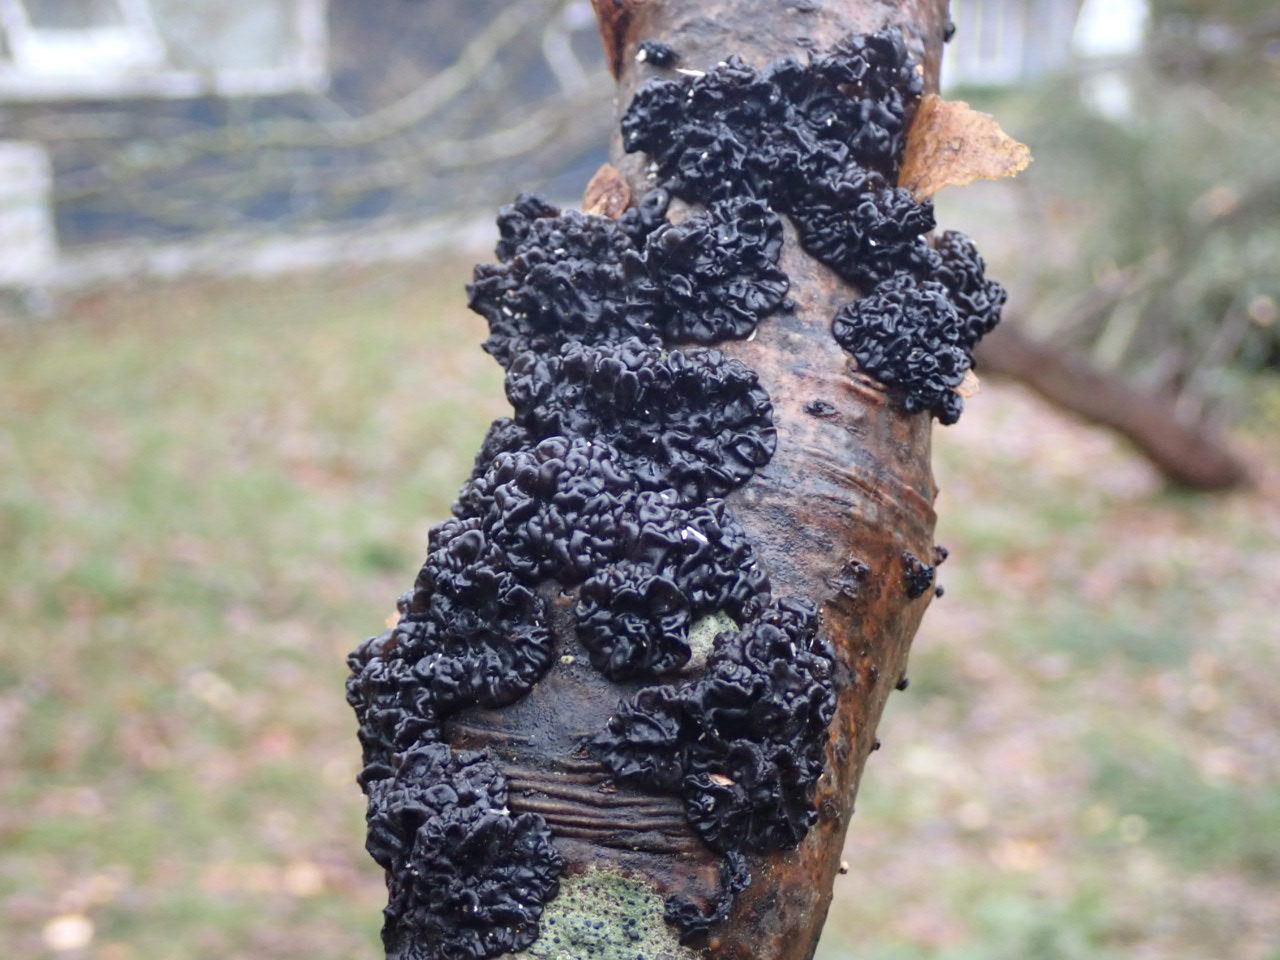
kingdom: Fungi
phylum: Basidiomycota
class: Agaricomycetes
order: Auriculariales
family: Auriculariaceae
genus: Exidia
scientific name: Exidia nigricans
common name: almindelig bævretop
